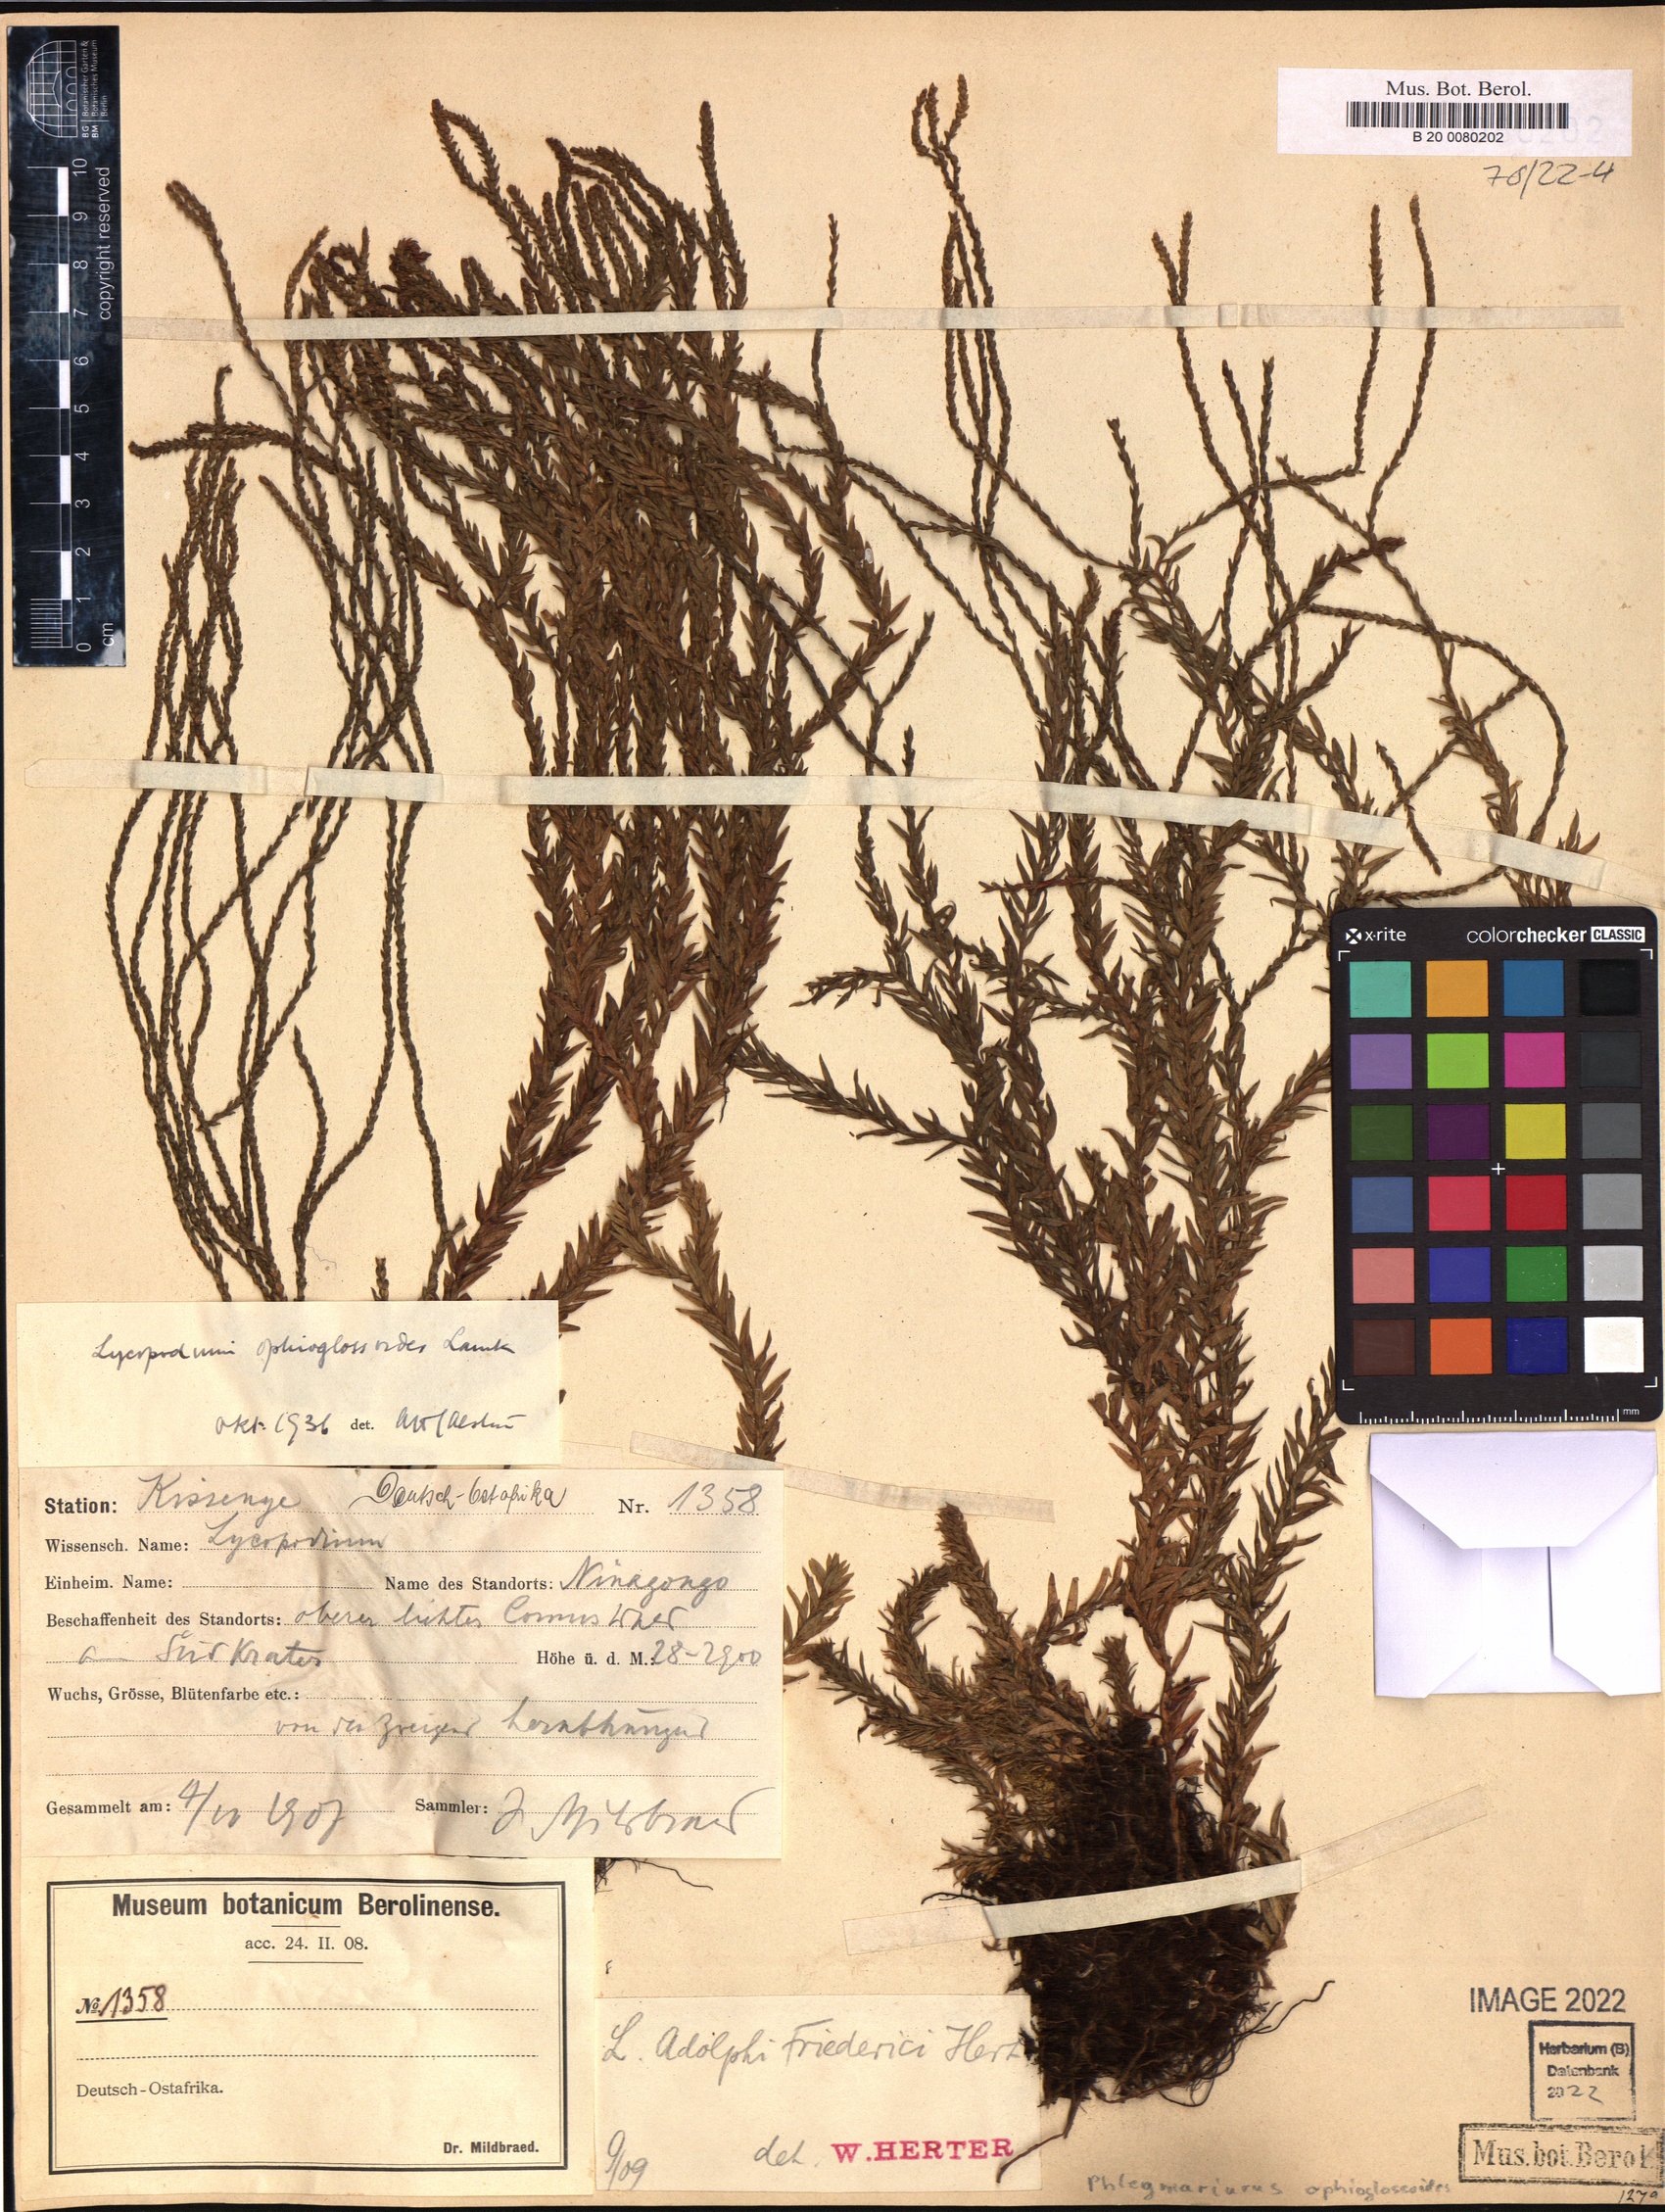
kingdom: Plantae
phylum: Tracheophyta
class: Lycopodiopsida
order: Lycopodiales
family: Lycopodiaceae
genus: Phlegmariurus
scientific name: Phlegmariurus ophioglossoides
